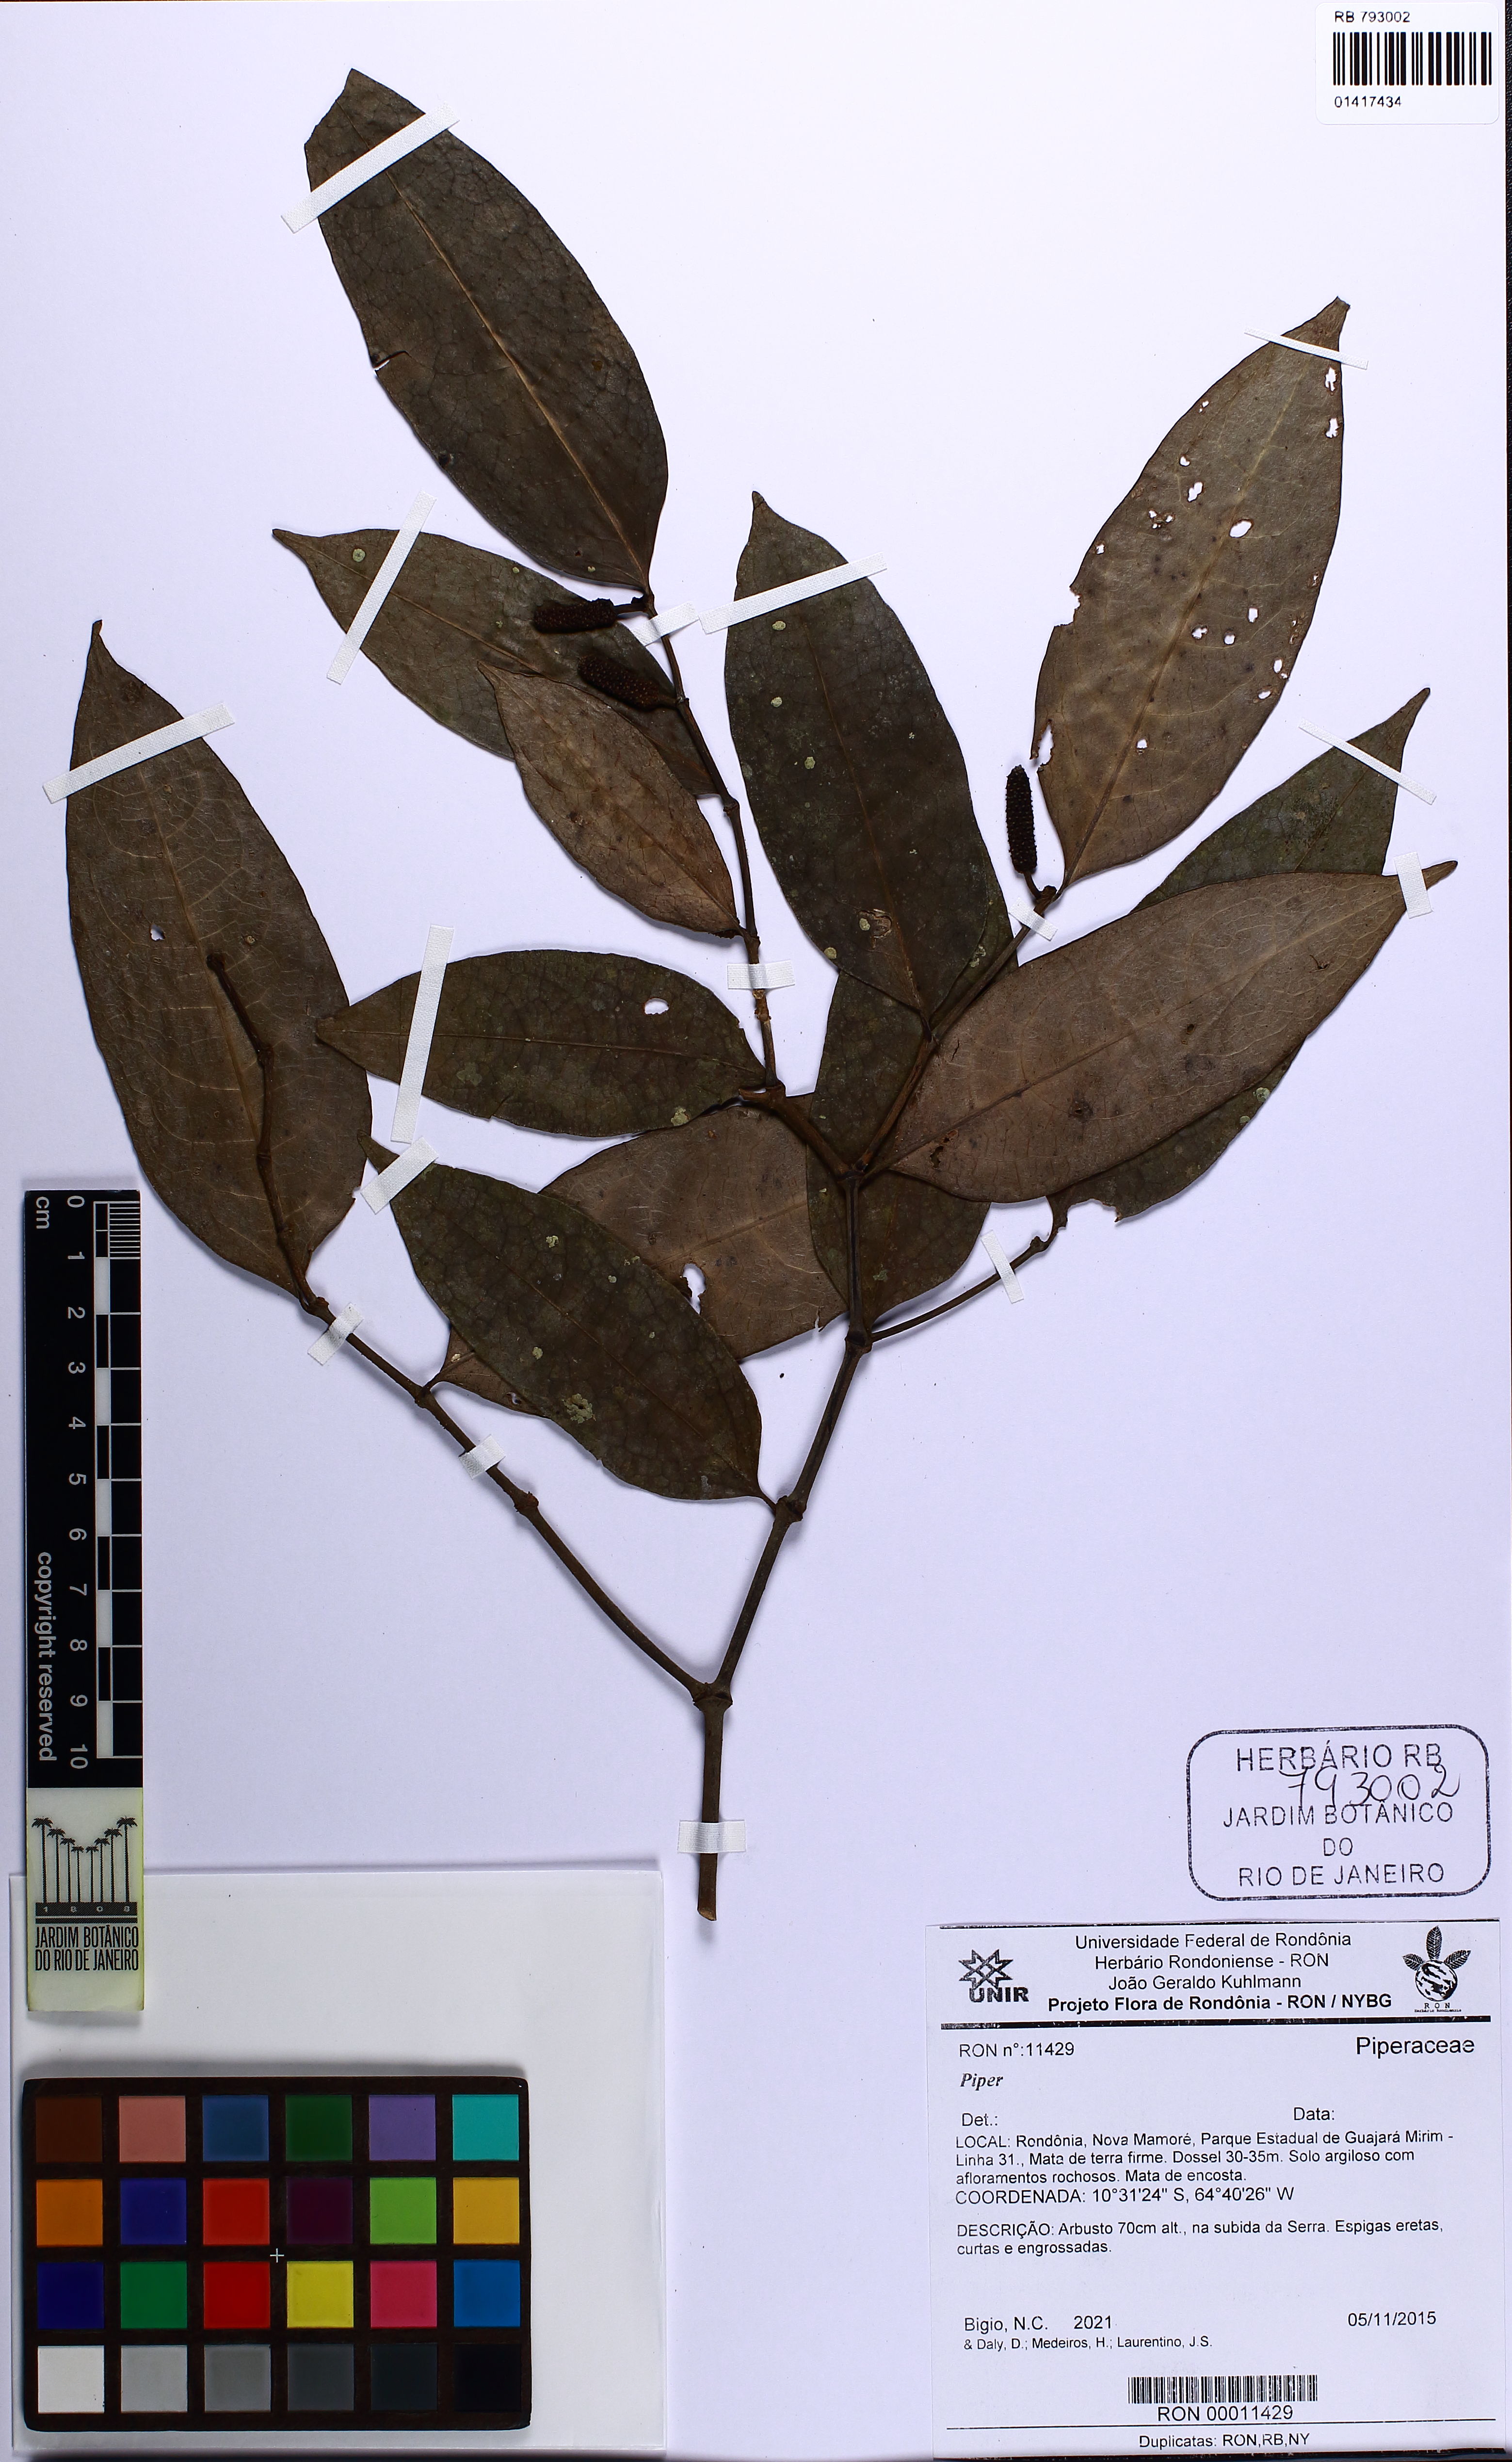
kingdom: Plantae
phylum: Tracheophyta
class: Magnoliopsida
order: Piperales
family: Piperaceae
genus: Piper
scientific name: Piper anonifolium
